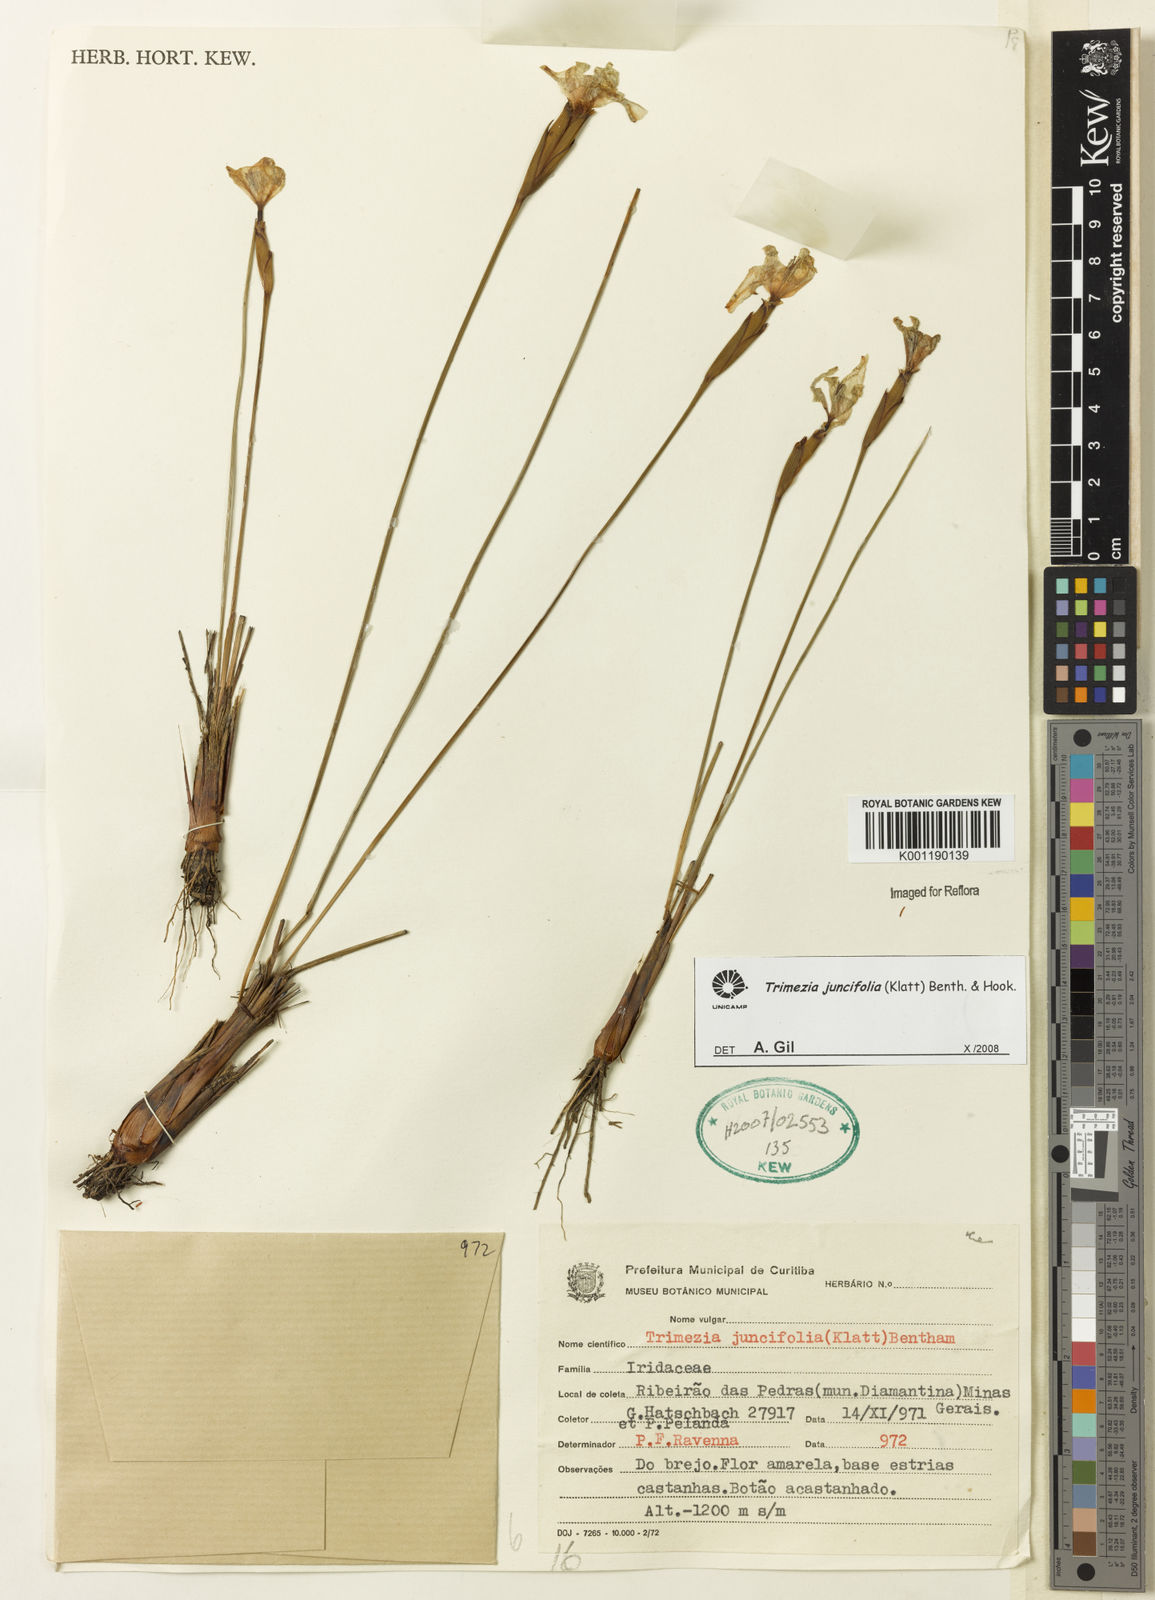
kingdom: Plantae
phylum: Tracheophyta
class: Liliopsida
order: Asparagales
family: Iridaceae
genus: Trimezia
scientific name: Trimezia juncifolia
